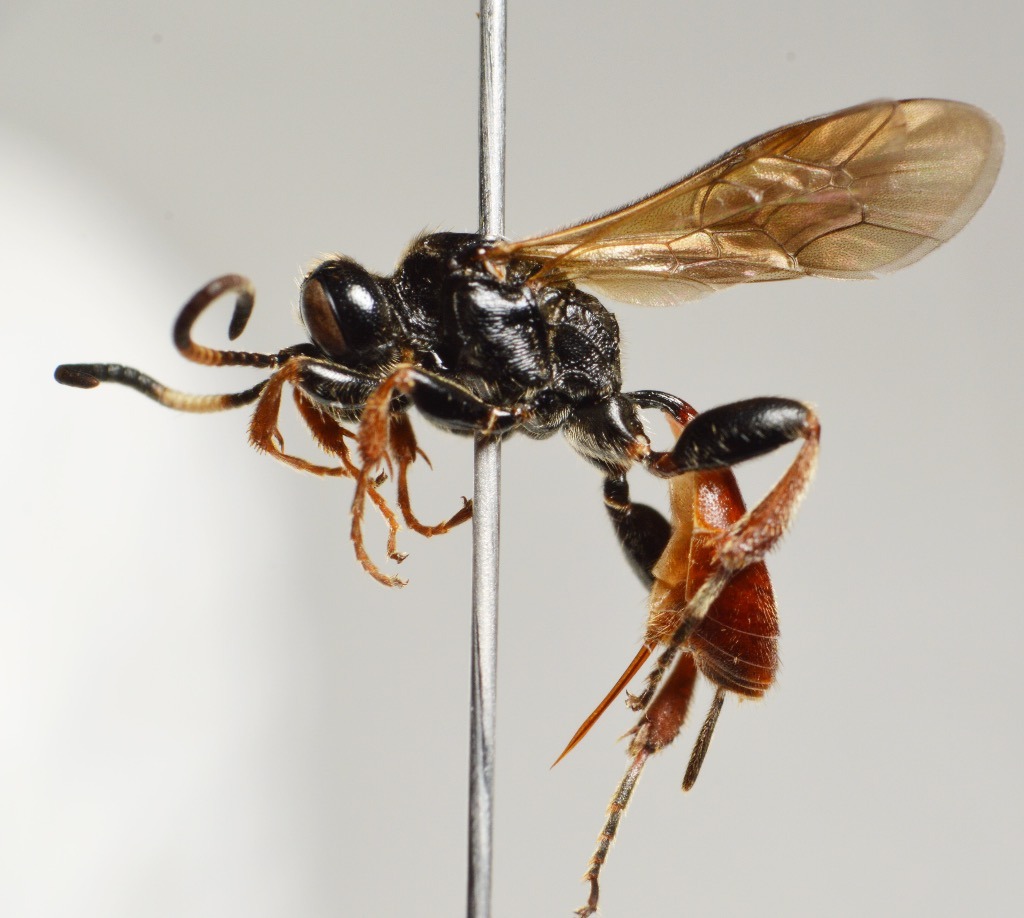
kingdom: Animalia
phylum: Arthropoda
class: Insecta
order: Hymenoptera
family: Ichneumonidae
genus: Glyphicnemis
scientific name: Glyphicnemis profligator
